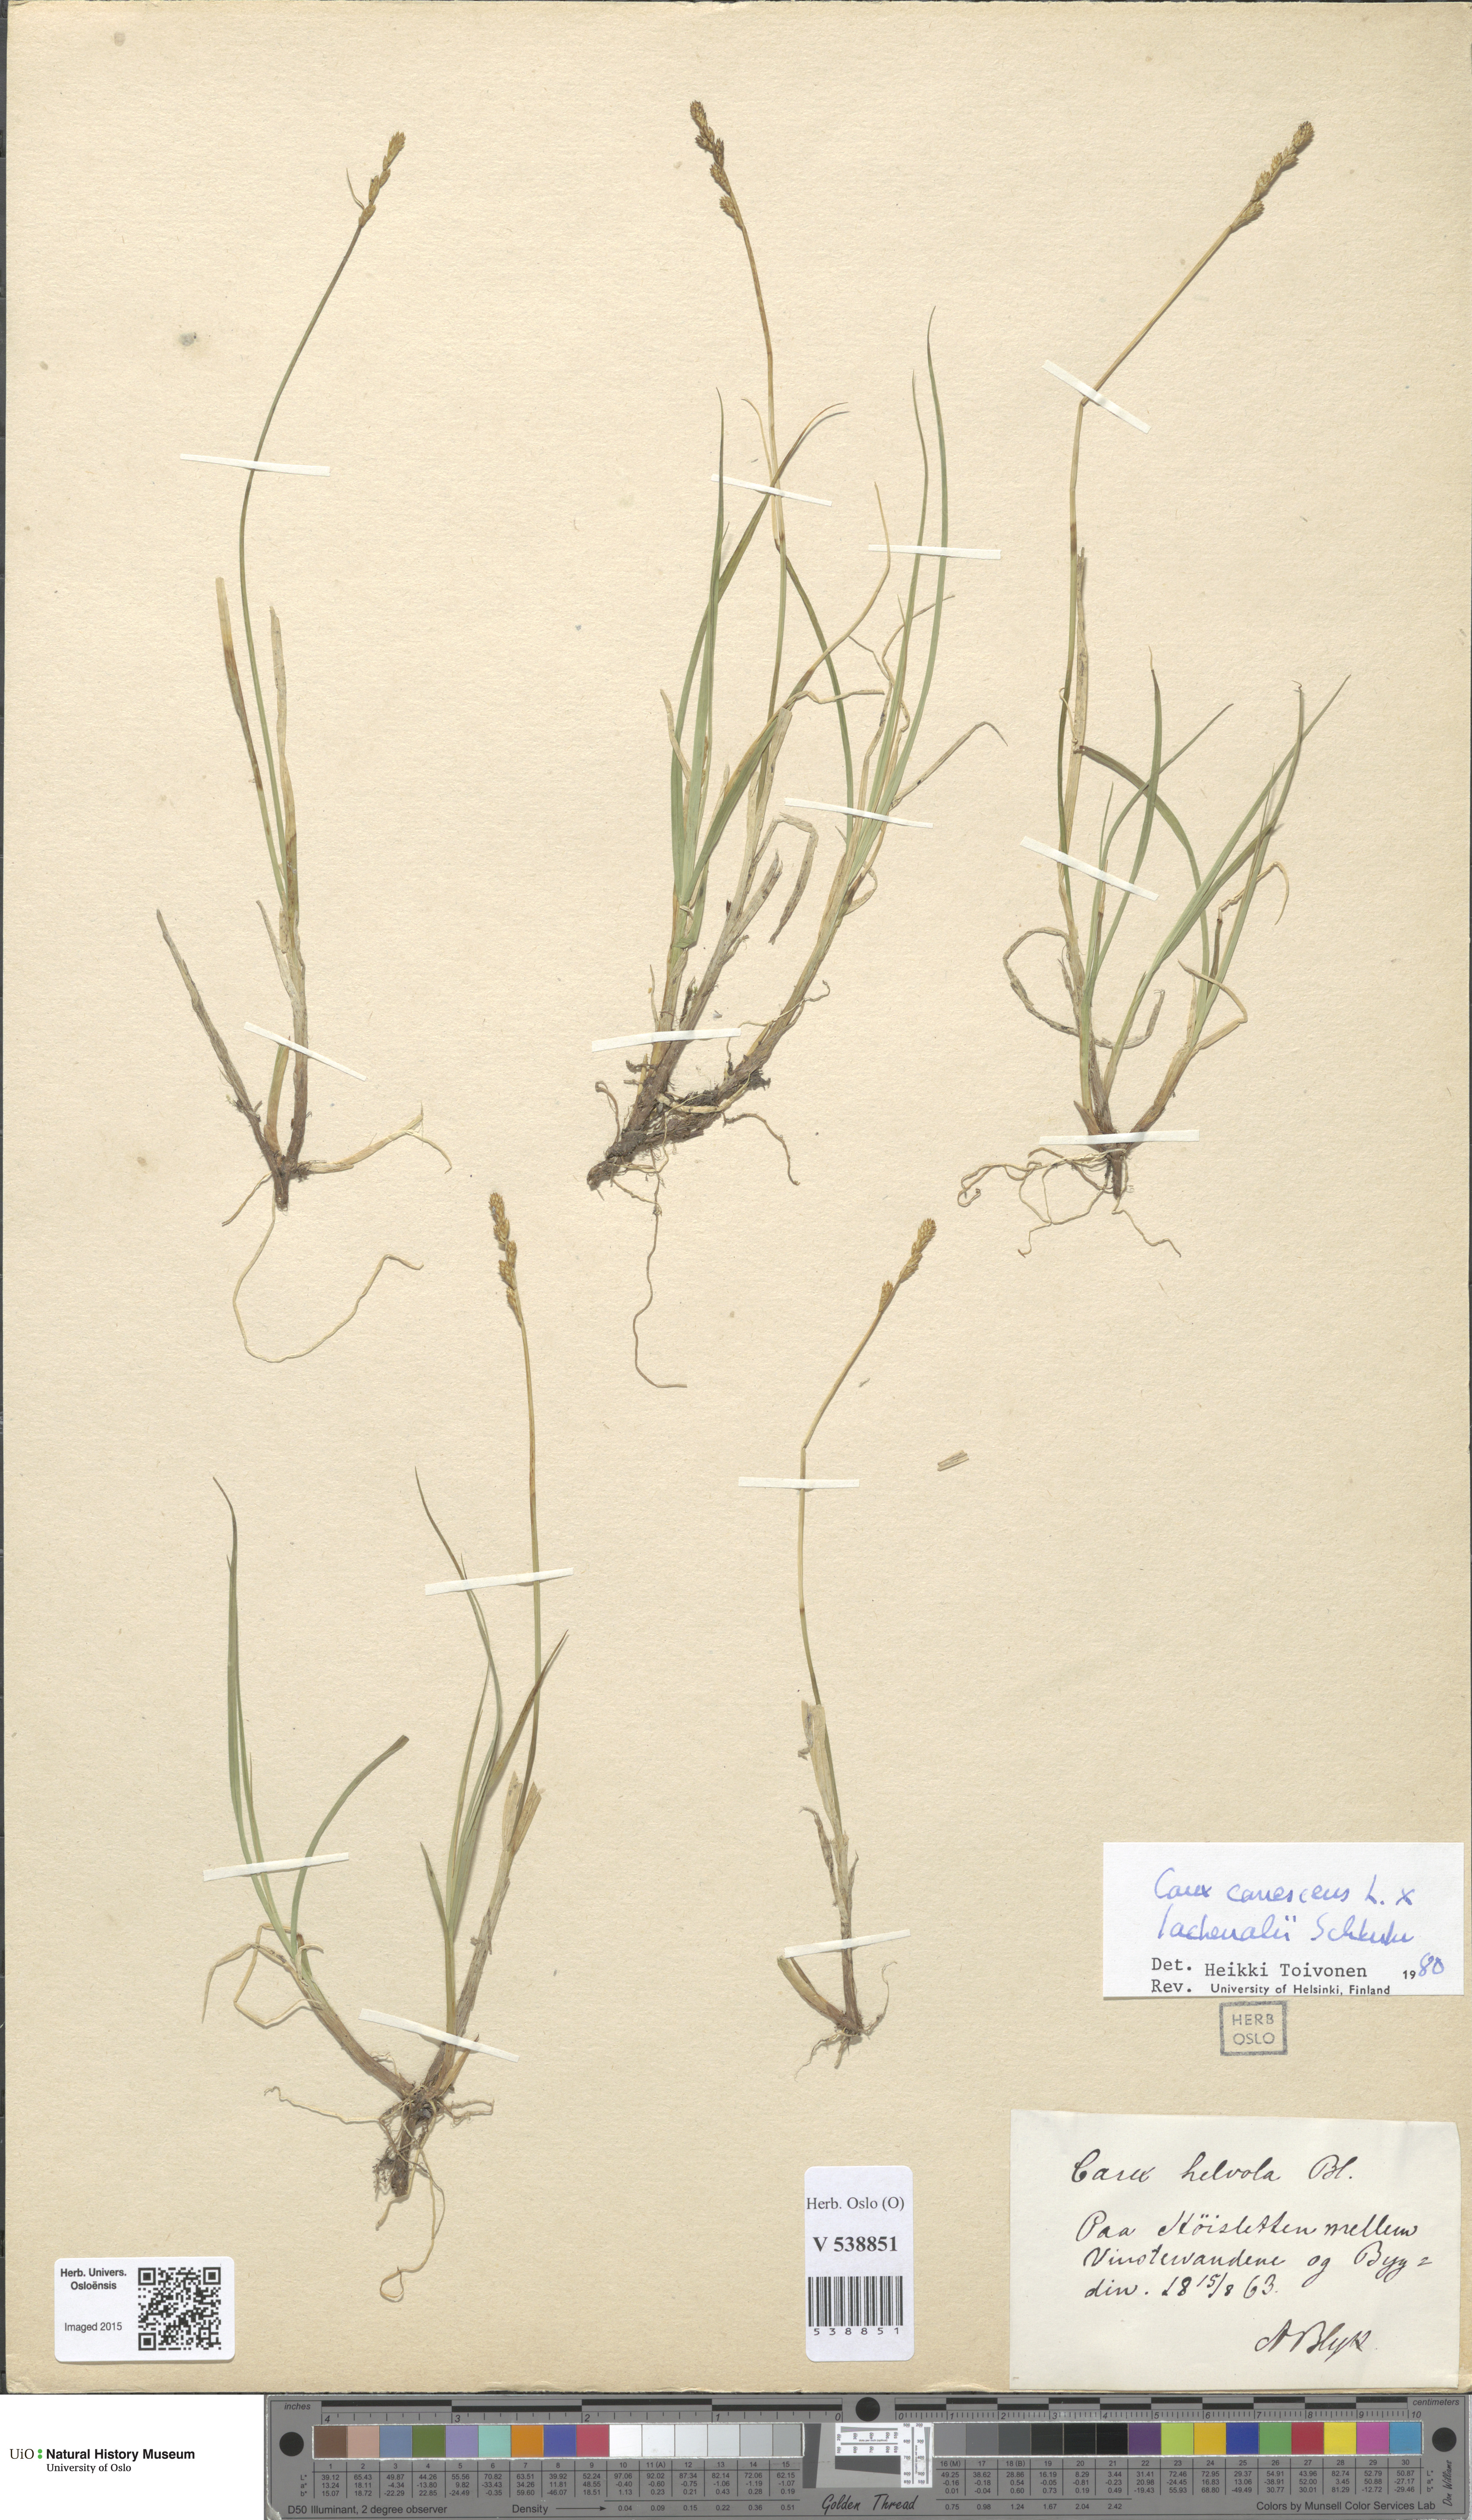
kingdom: Plantae
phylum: Tracheophyta
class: Liliopsida
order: Poales
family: Cyperaceae
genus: Carex
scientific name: Carex
